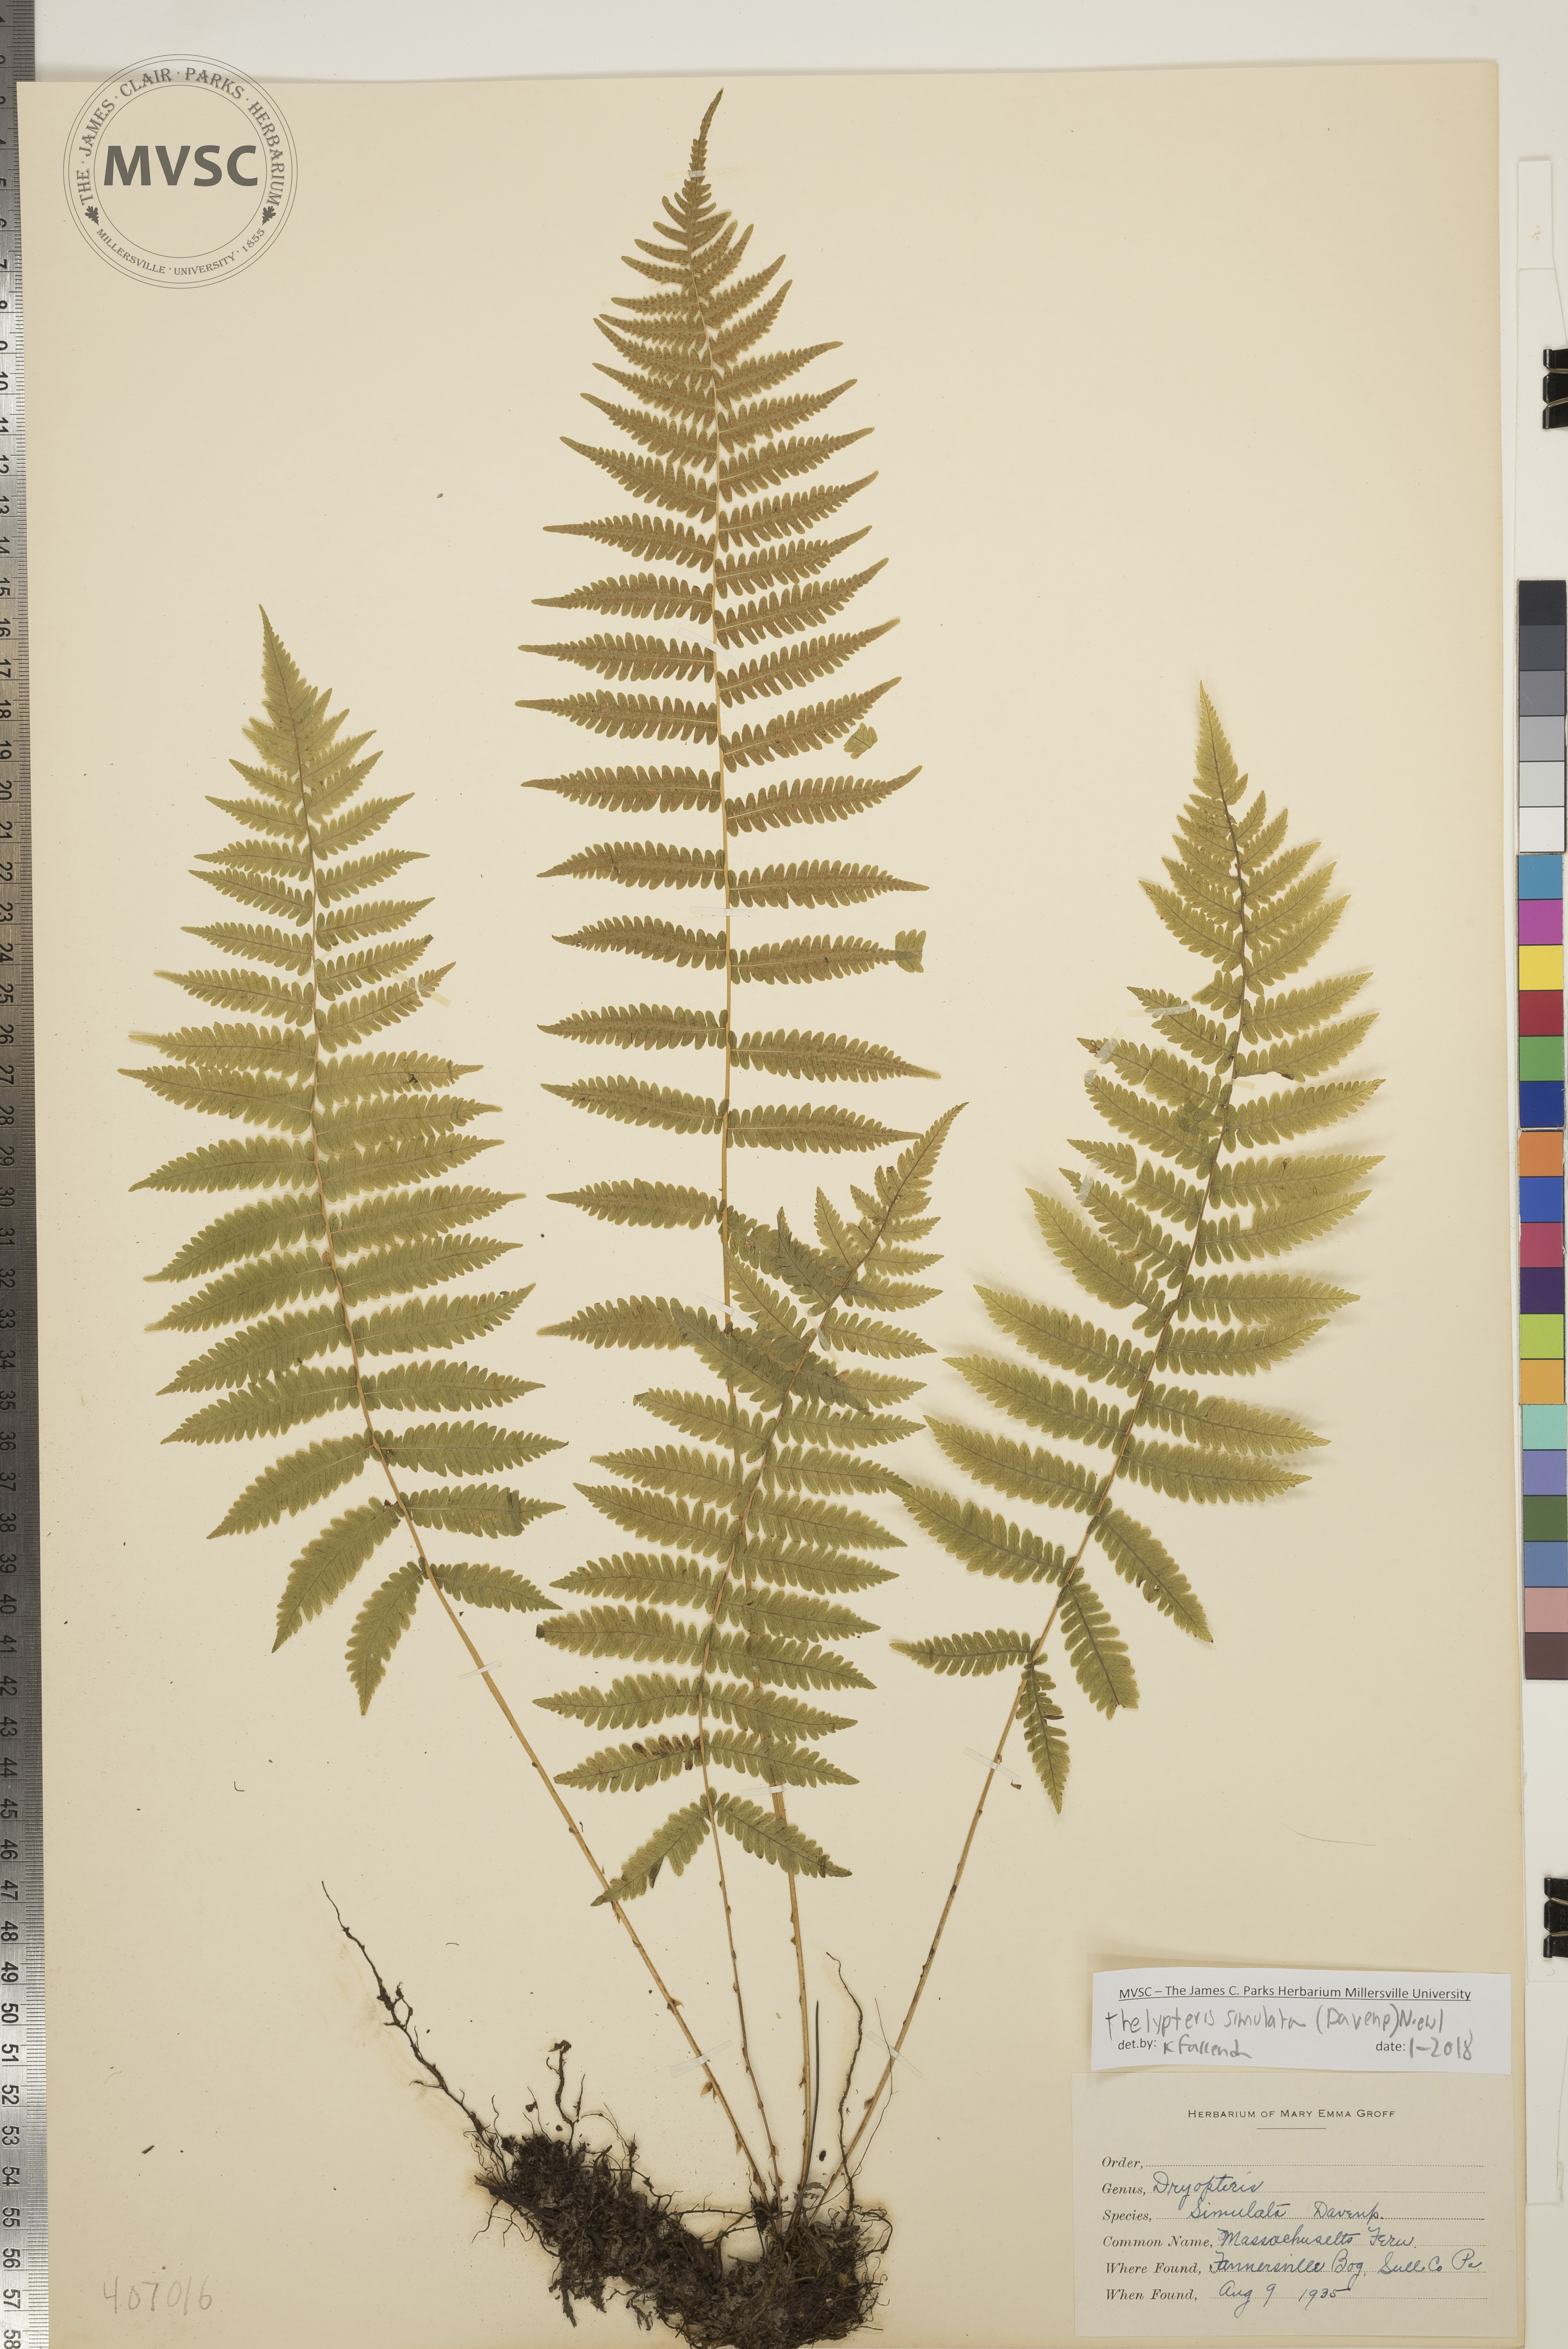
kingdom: Plantae
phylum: Tracheophyta
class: Polypodiopsida
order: Polypodiales
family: Thelypteridaceae
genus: Coryphopteris
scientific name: Coryphopteris simulata
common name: Massachusetts Fern
